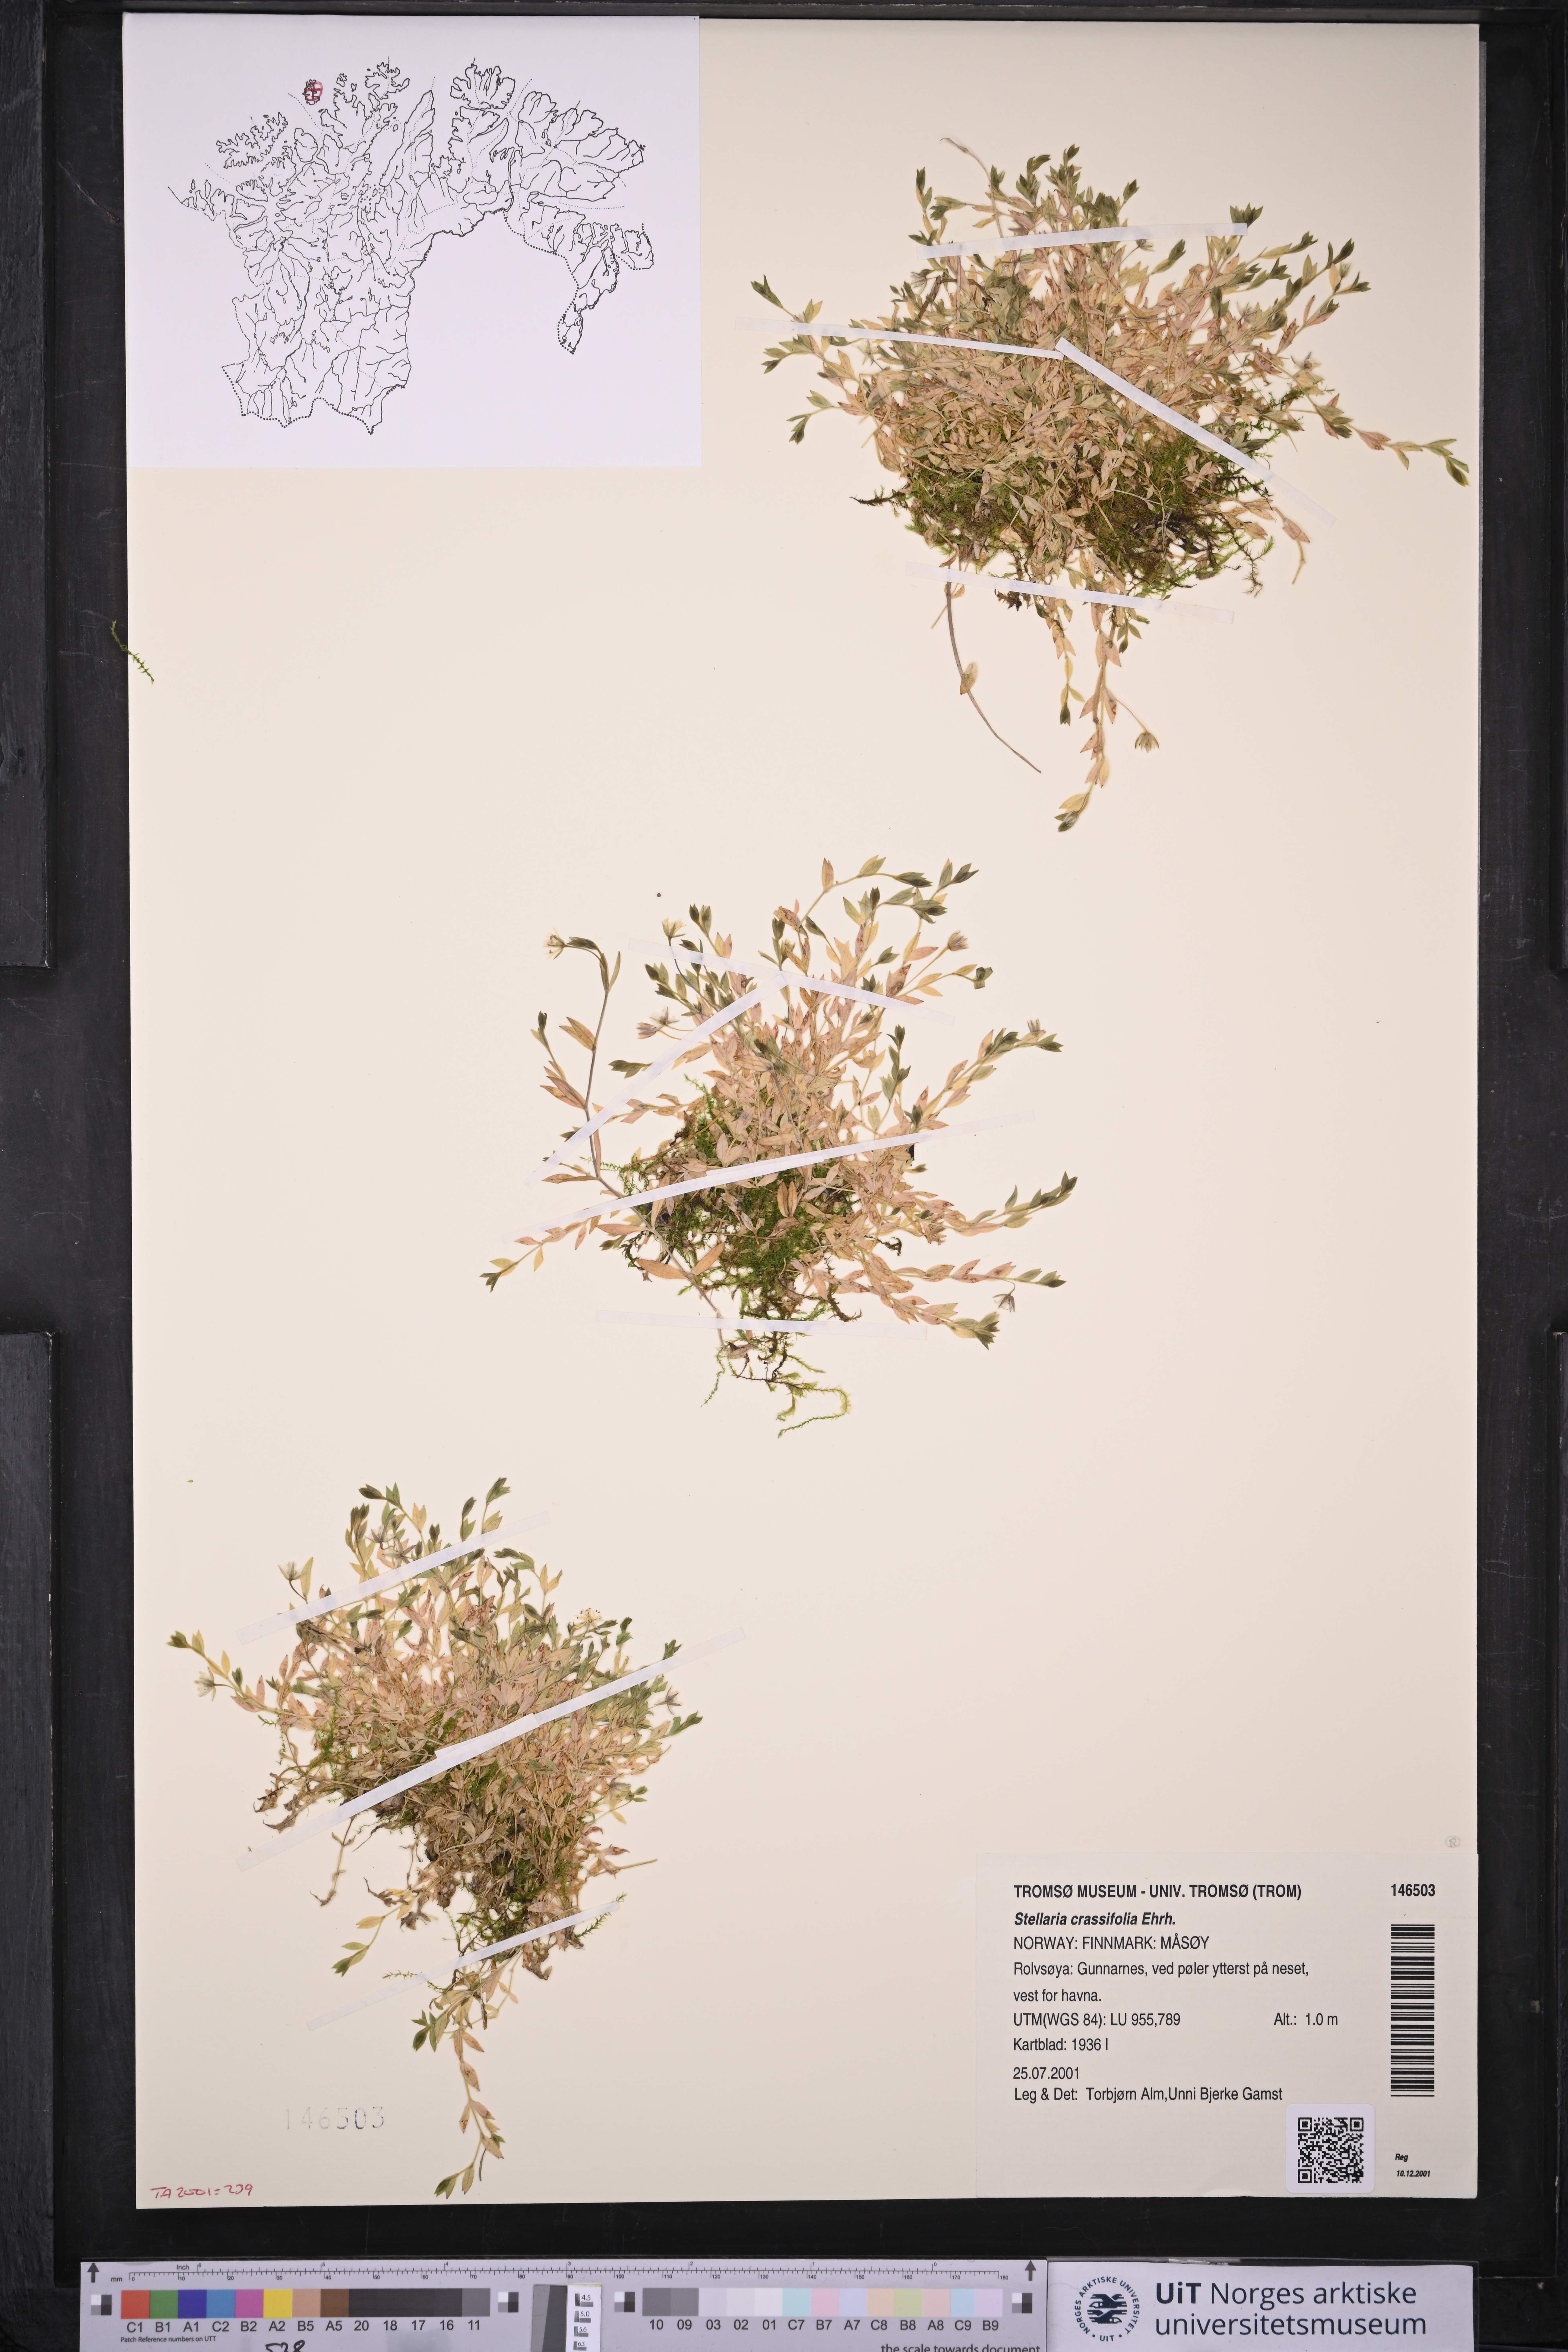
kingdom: Plantae
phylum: Tracheophyta
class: Magnoliopsida
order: Caryophyllales
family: Caryophyllaceae
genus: Stellaria
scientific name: Stellaria crassifolia
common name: Fleshy starwort
